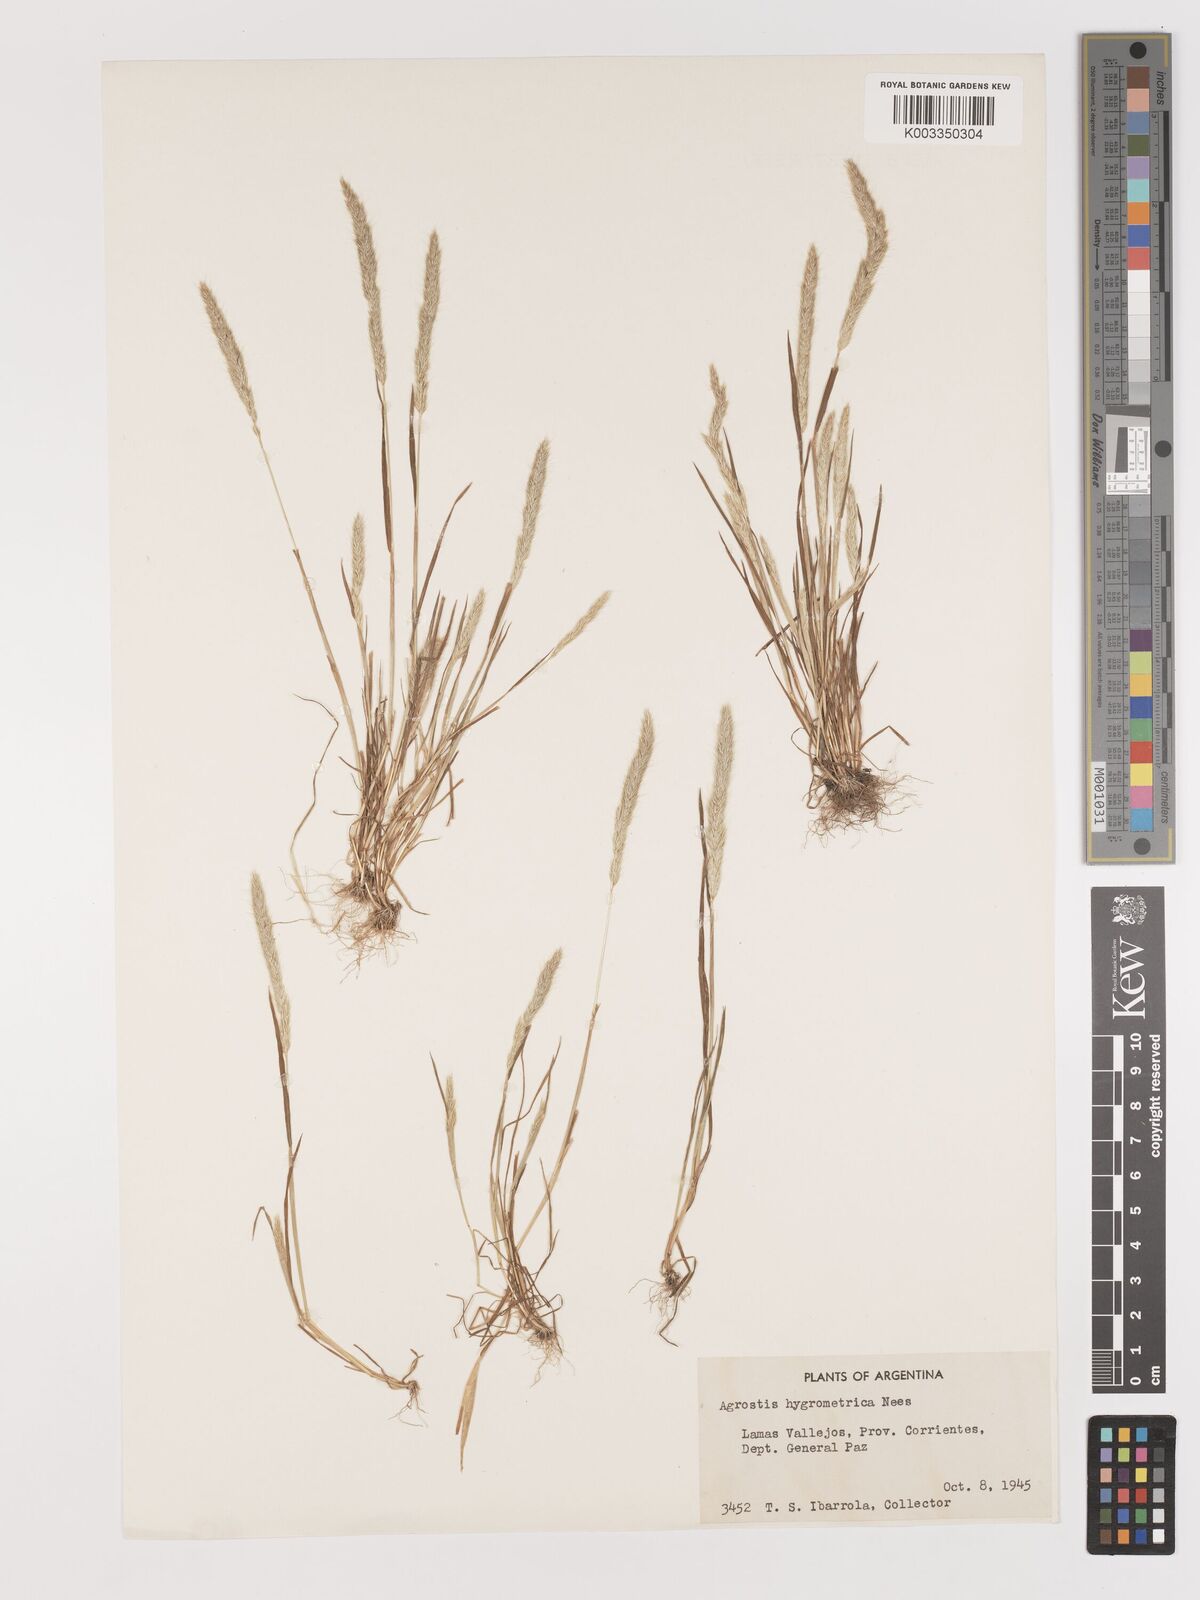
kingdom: Plantae
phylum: Tracheophyta
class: Liliopsida
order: Poales
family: Poaceae
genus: Agrostis
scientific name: Agrostis tandilensis
